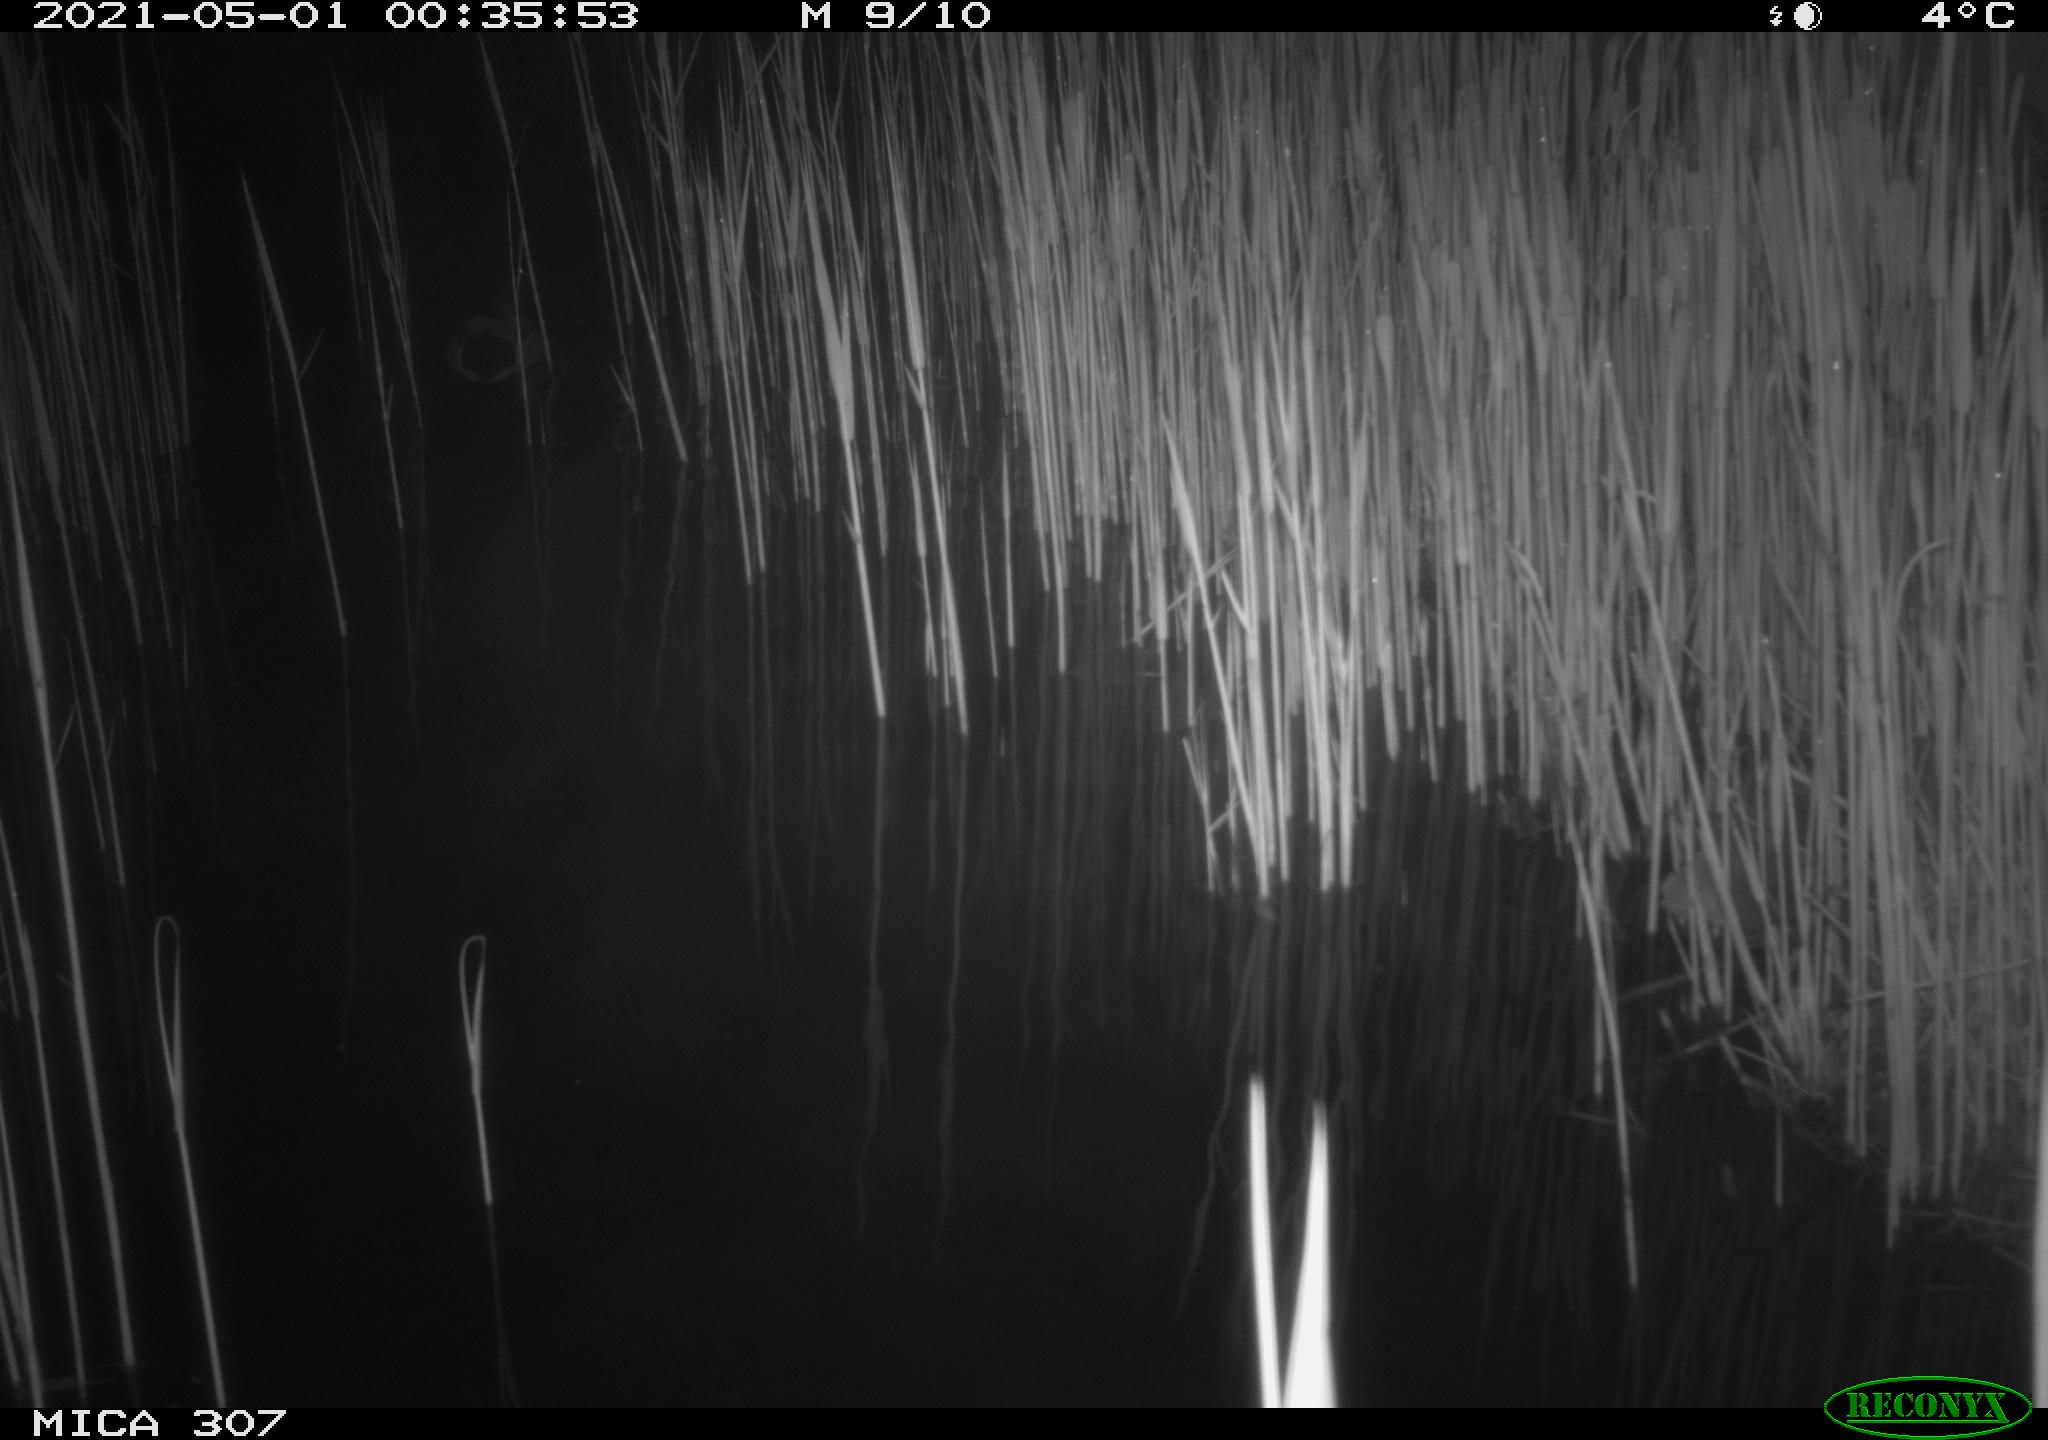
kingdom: Animalia
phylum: Chordata
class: Aves
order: Anseriformes
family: Anatidae
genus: Anas
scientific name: Anas platyrhynchos
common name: Mallard
